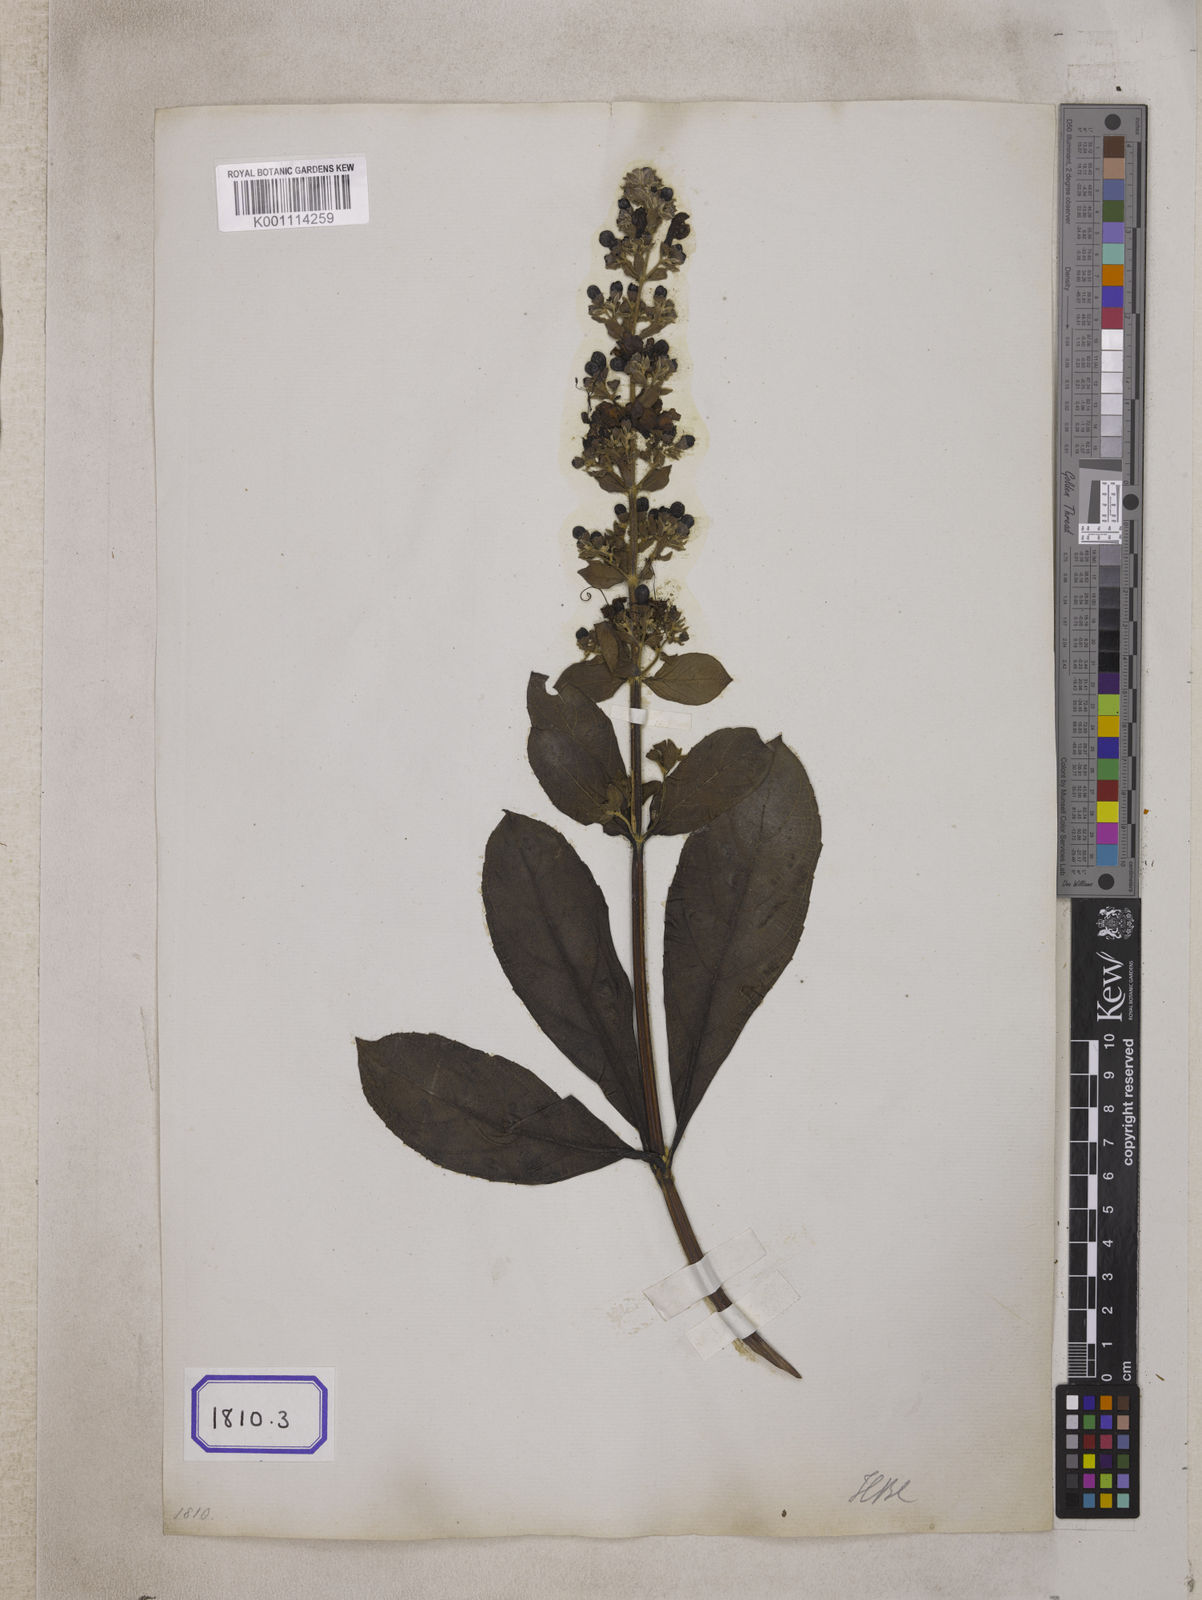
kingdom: Plantae
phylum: Tracheophyta
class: Magnoliopsida
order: Lamiales
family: Lamiaceae
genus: Clerodendrum
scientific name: Clerodendrum
